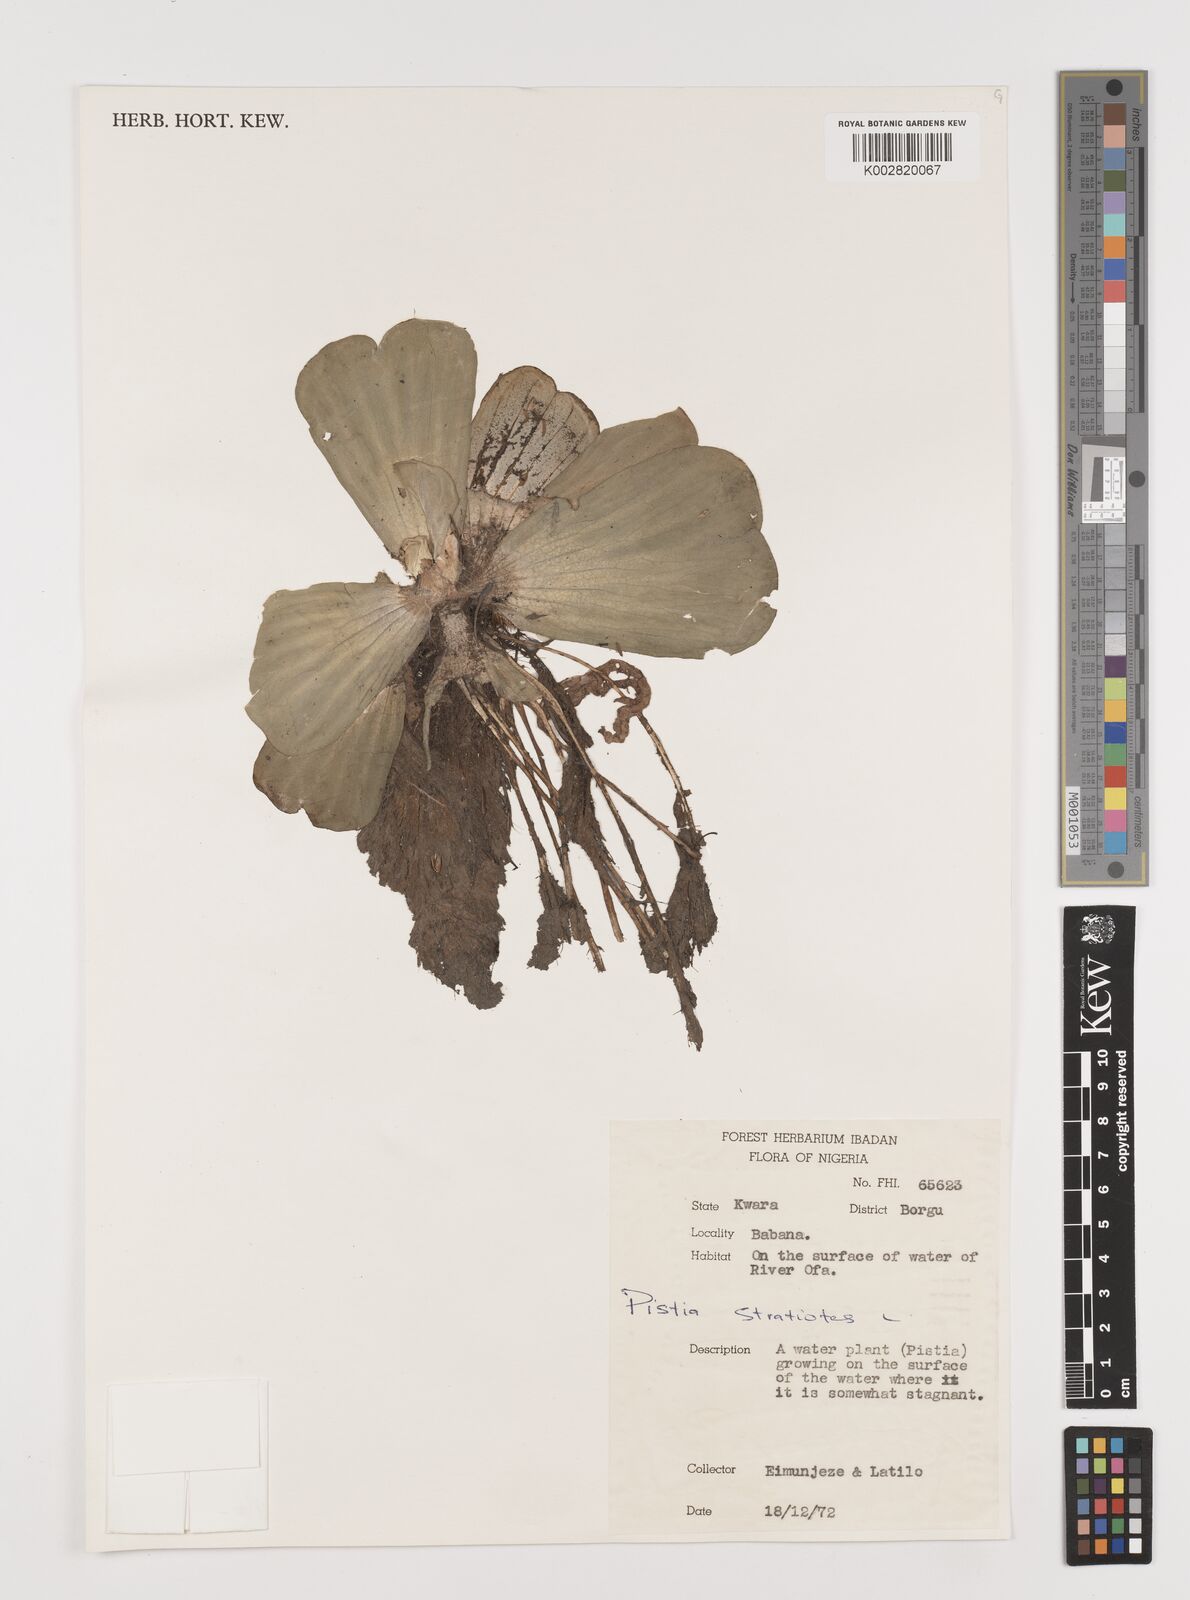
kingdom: Plantae
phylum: Tracheophyta
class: Liliopsida
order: Alismatales
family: Araceae
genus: Pistia
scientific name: Pistia stratiotes
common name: Water lettuce
